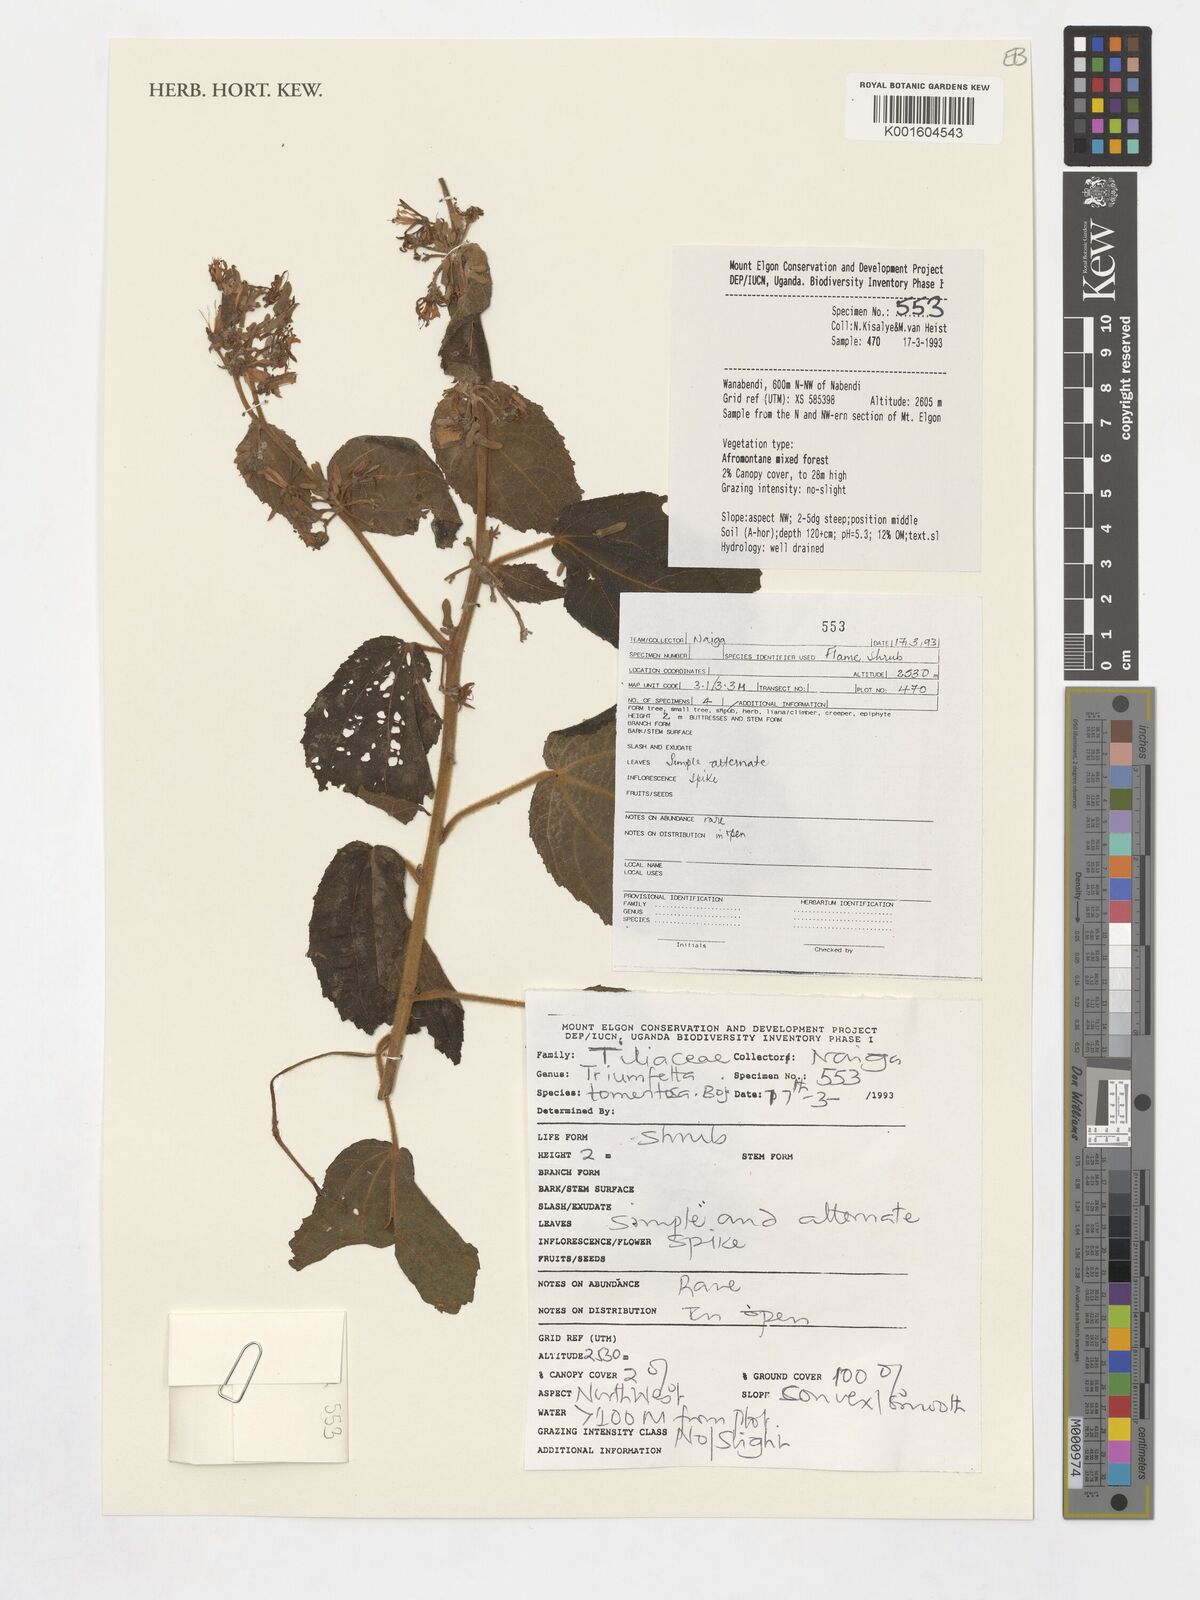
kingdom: Plantae
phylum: Tracheophyta
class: Magnoliopsida
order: Malvales
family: Malvaceae
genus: Triumfetta
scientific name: Triumfetta tomentosa
